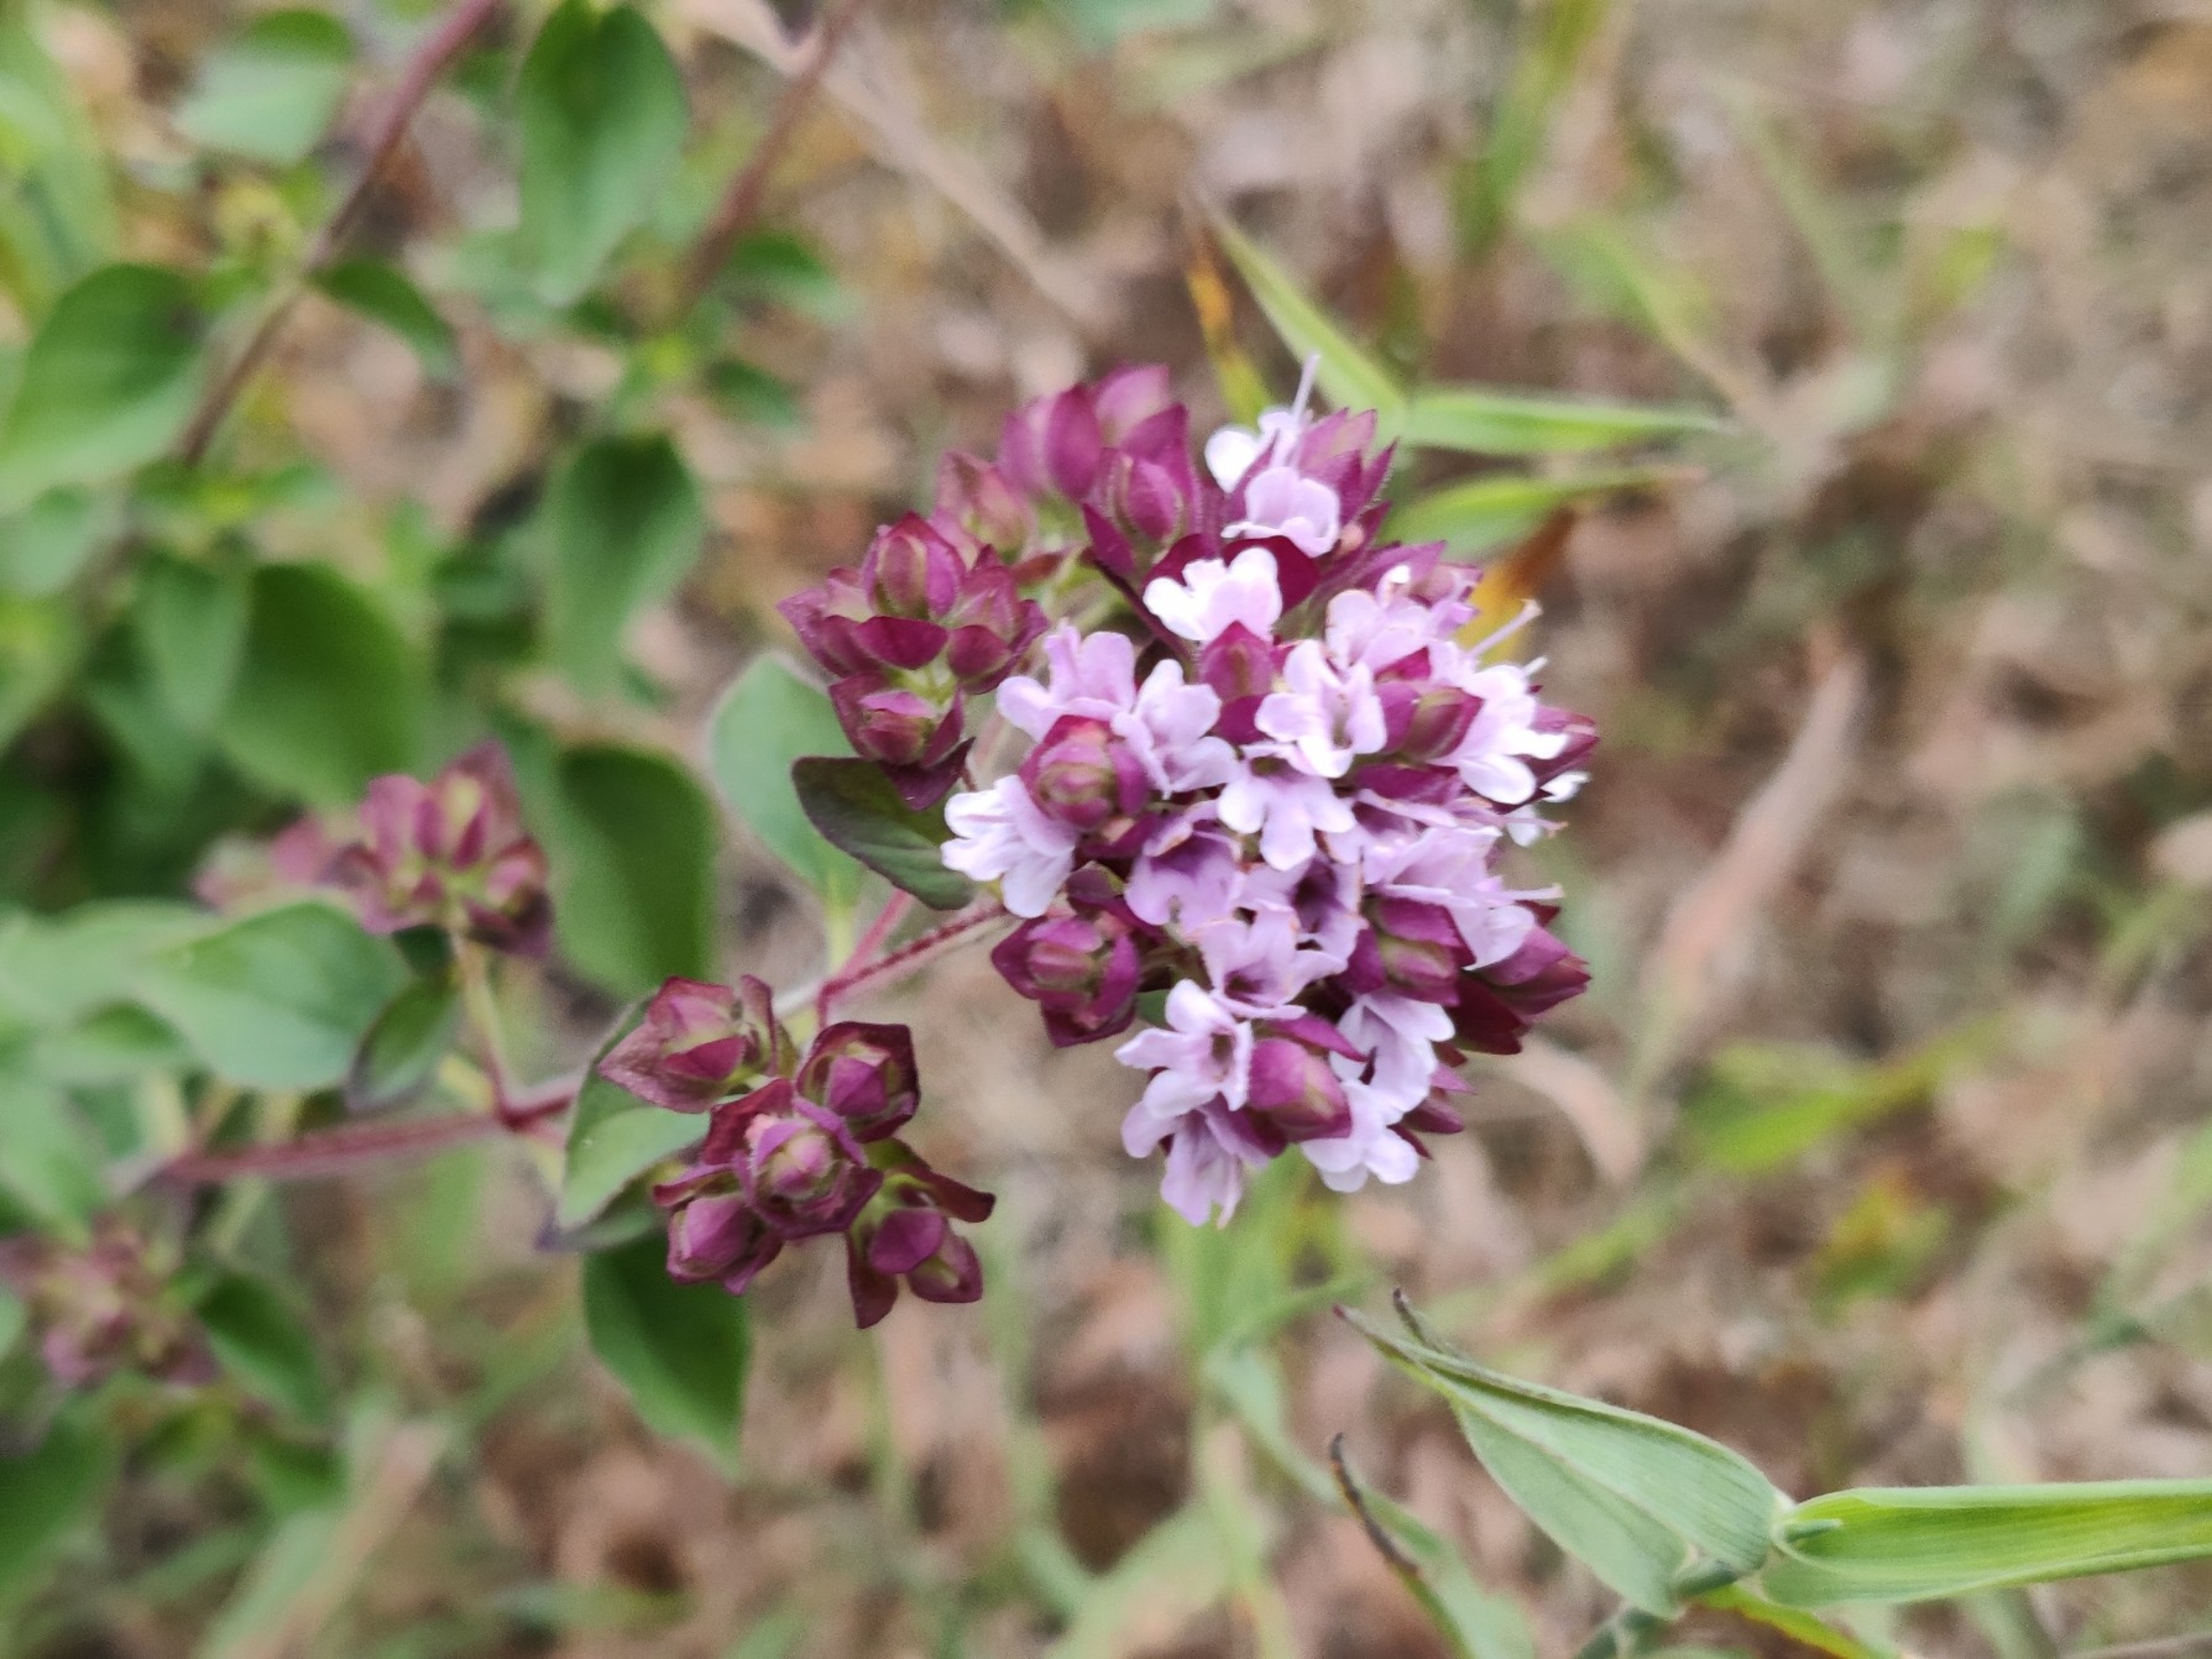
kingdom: Plantae
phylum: Tracheophyta
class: Magnoliopsida
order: Lamiales
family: Lamiaceae
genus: Origanum
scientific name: Origanum vulgare
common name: Merian
